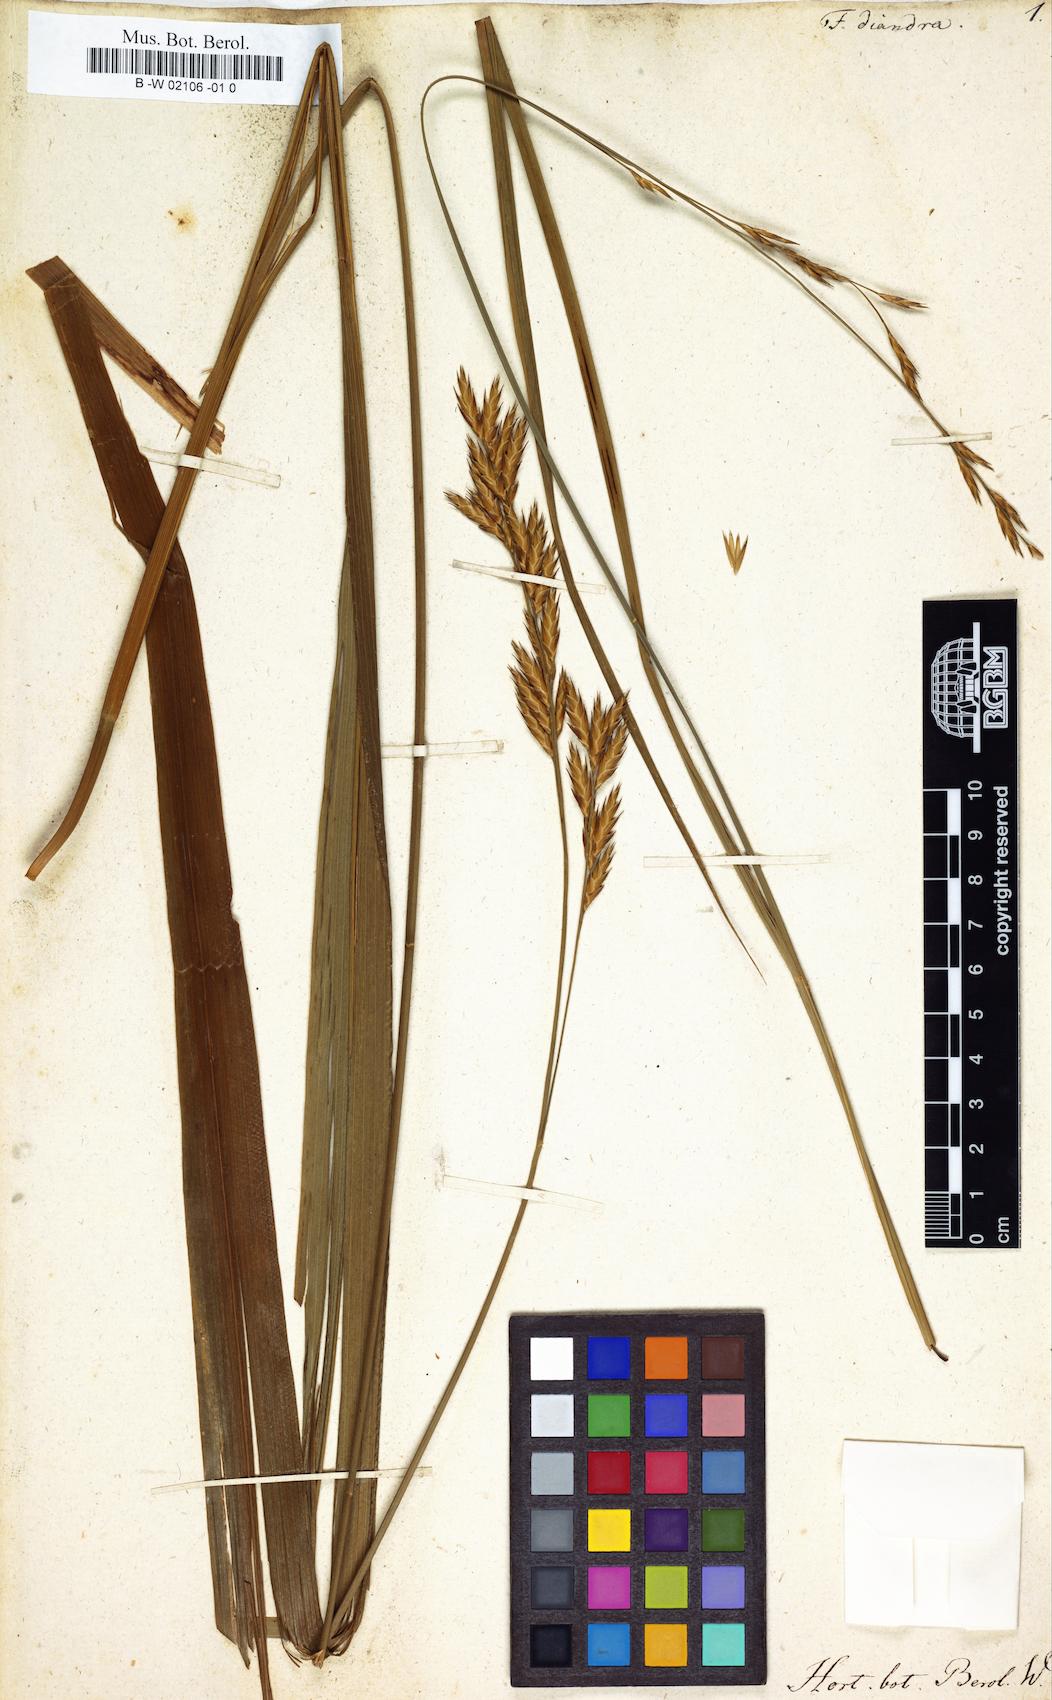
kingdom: Plantae
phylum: Tracheophyta
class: Liliopsida
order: Poales
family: Poaceae
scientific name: Poaceae
